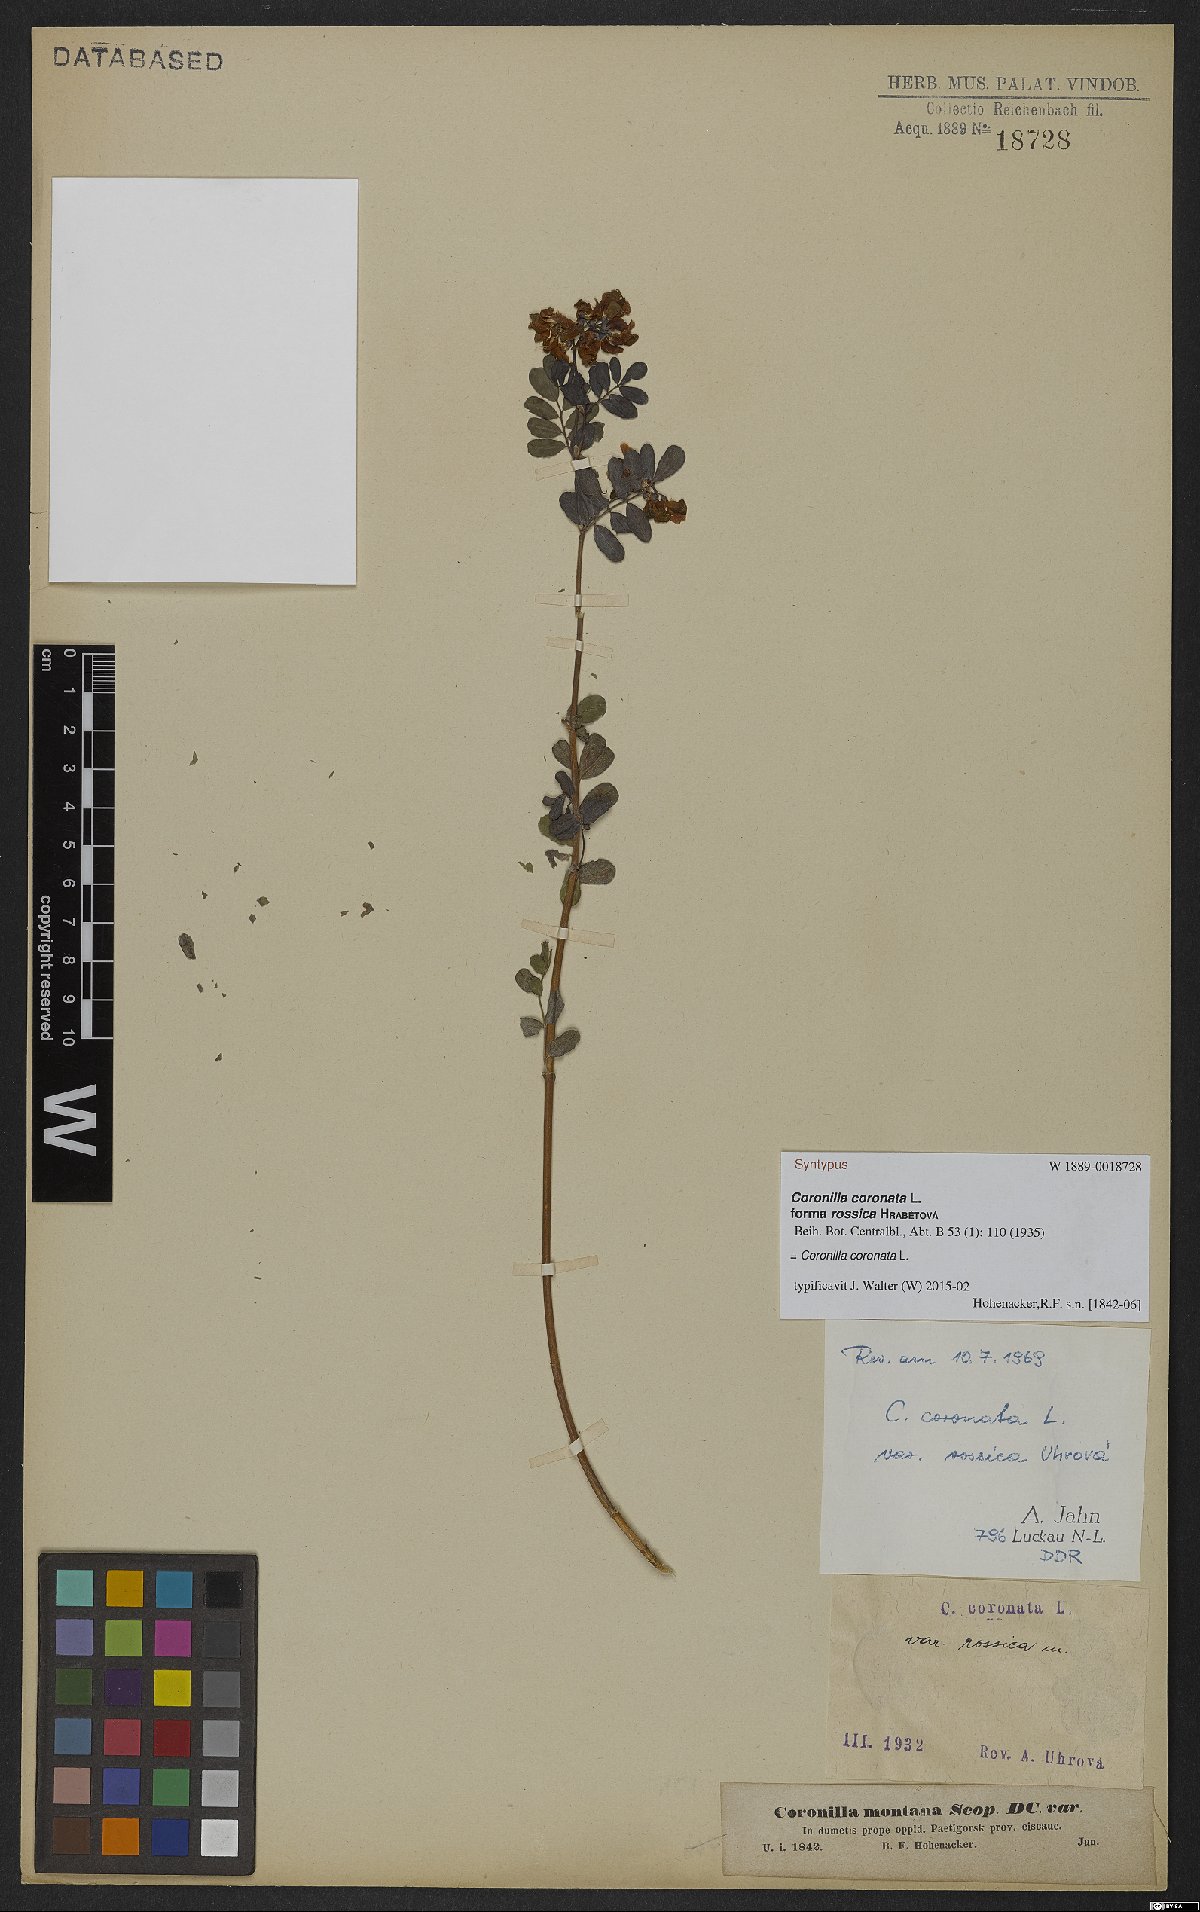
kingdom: Plantae
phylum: Tracheophyta
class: Magnoliopsida
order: Fabales
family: Fabaceae
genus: Coronilla
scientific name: Coronilla coronata
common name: Scorpion-vetch
